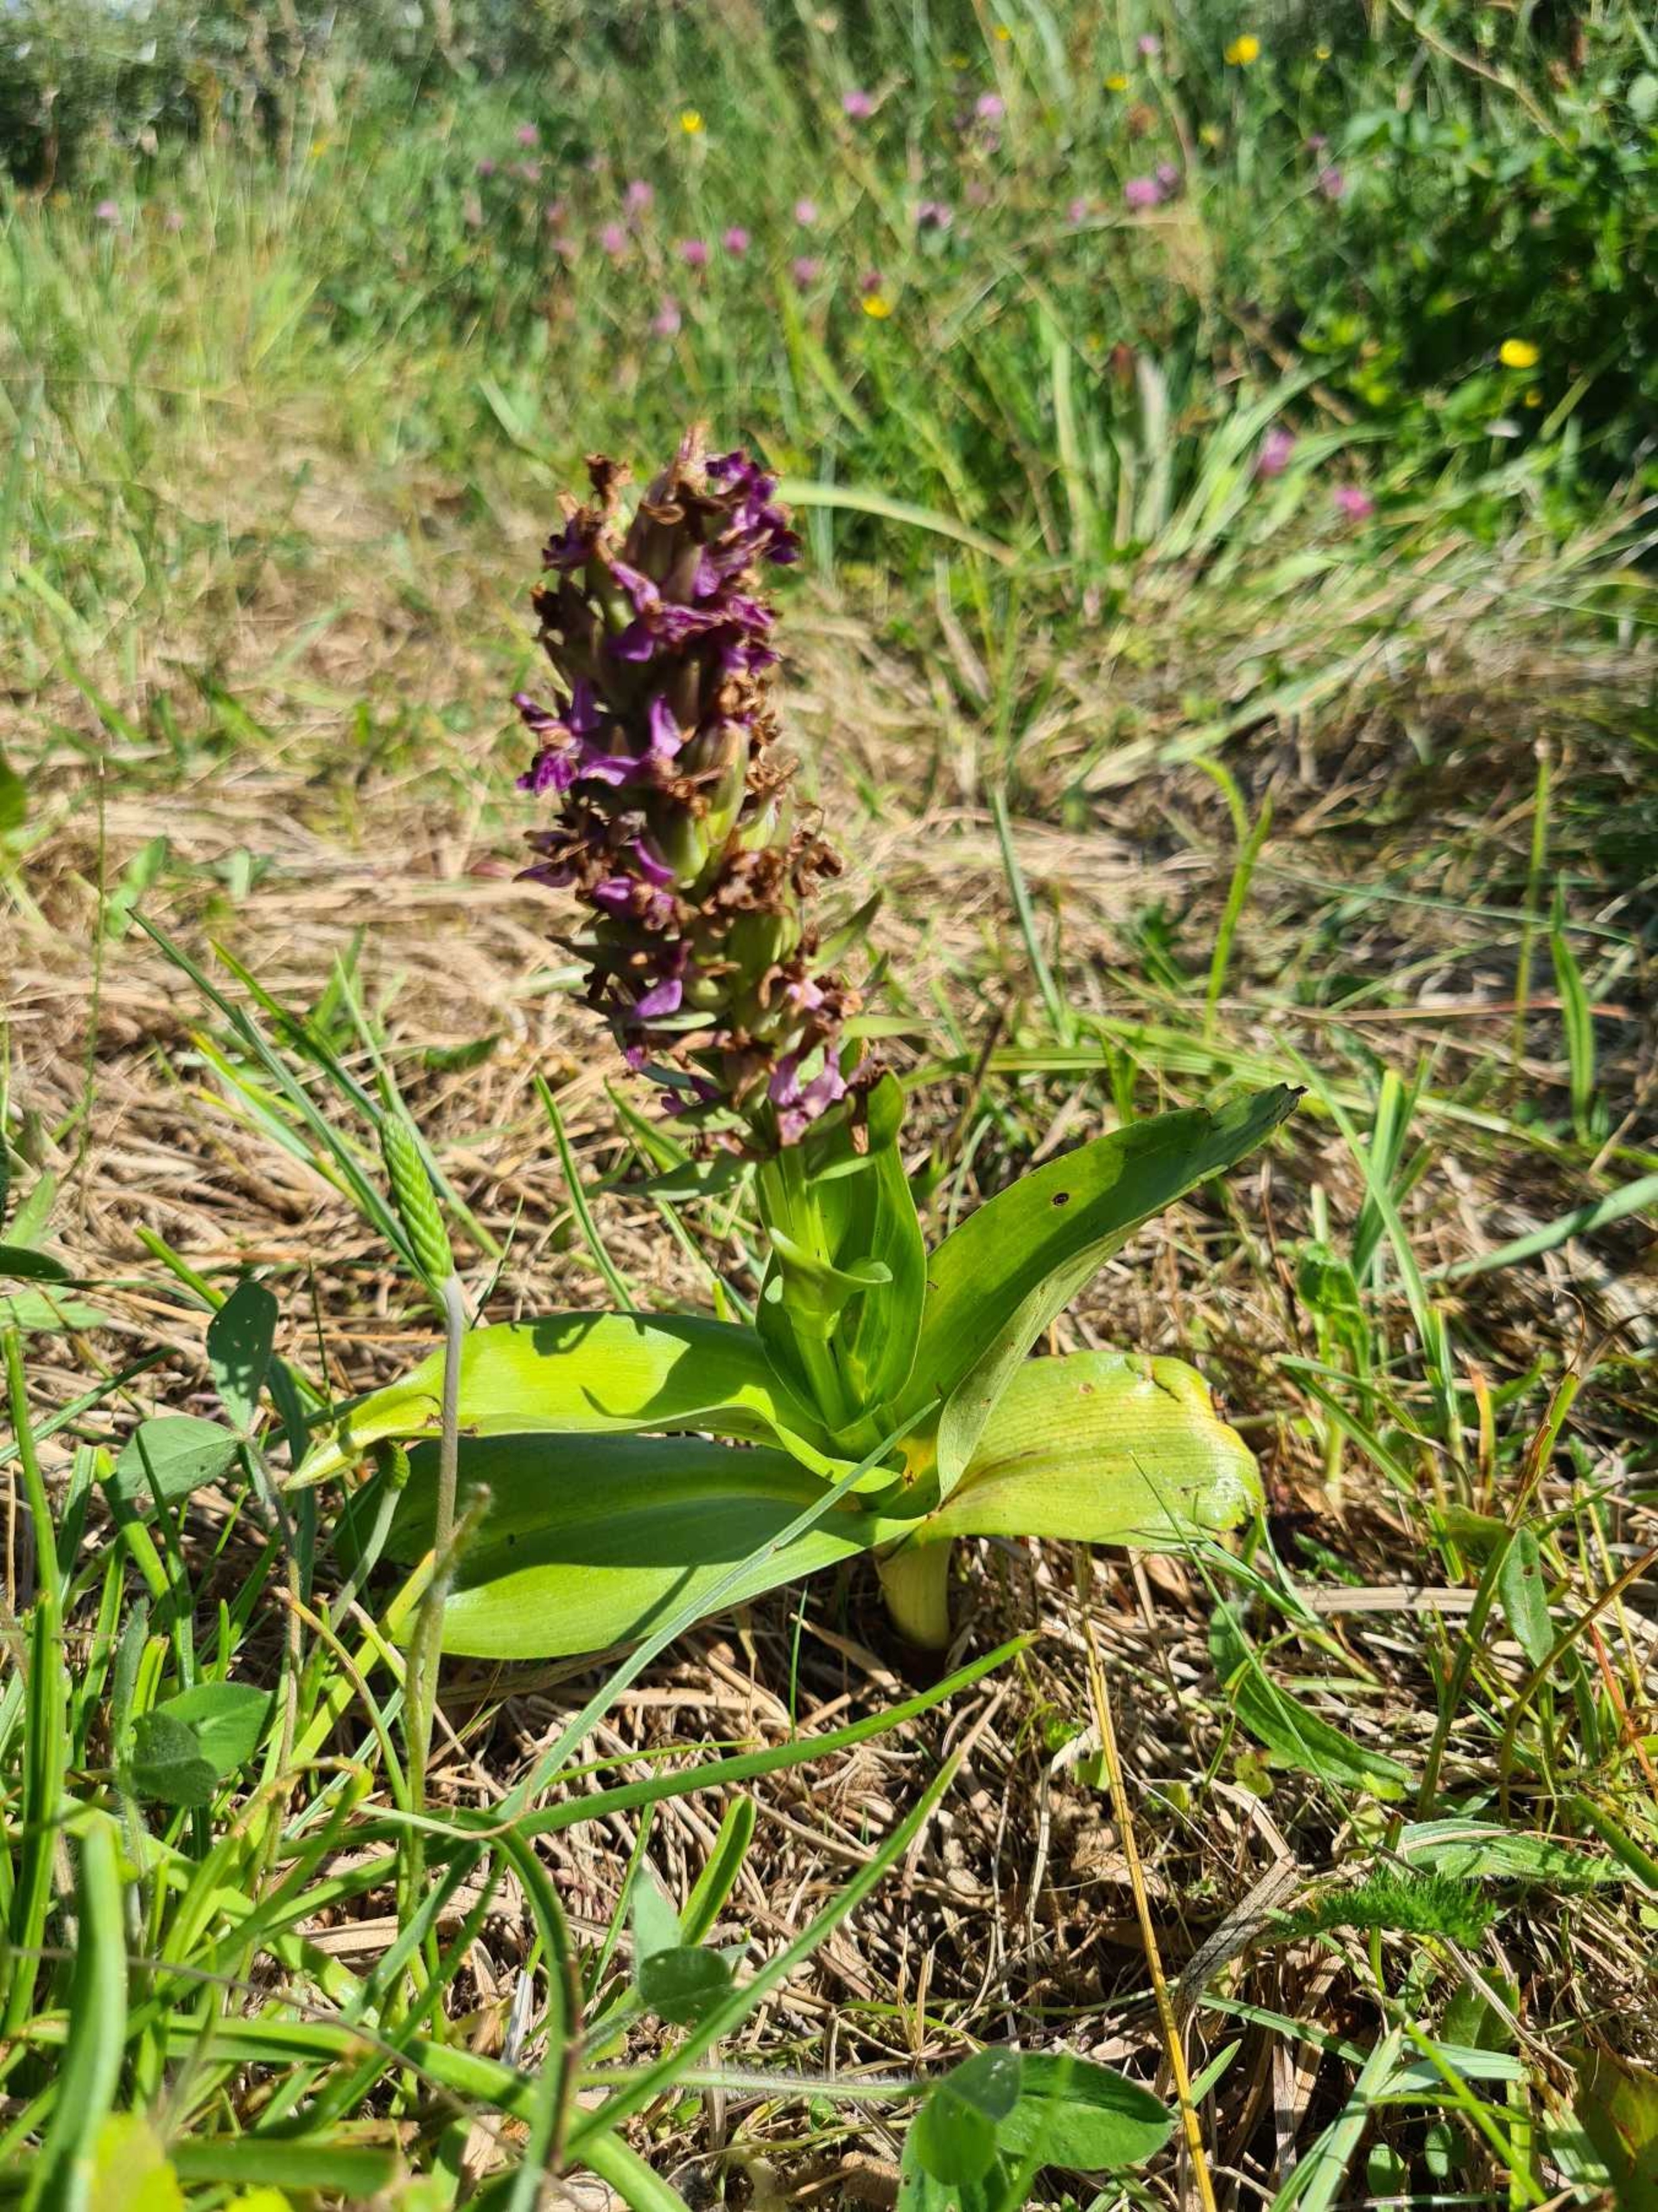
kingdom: Plantae
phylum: Tracheophyta
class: Liliopsida
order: Asparagales
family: Orchidaceae
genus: Dactylorhiza
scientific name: Dactylorhiza majalis
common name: Purpur-gøgeurt
